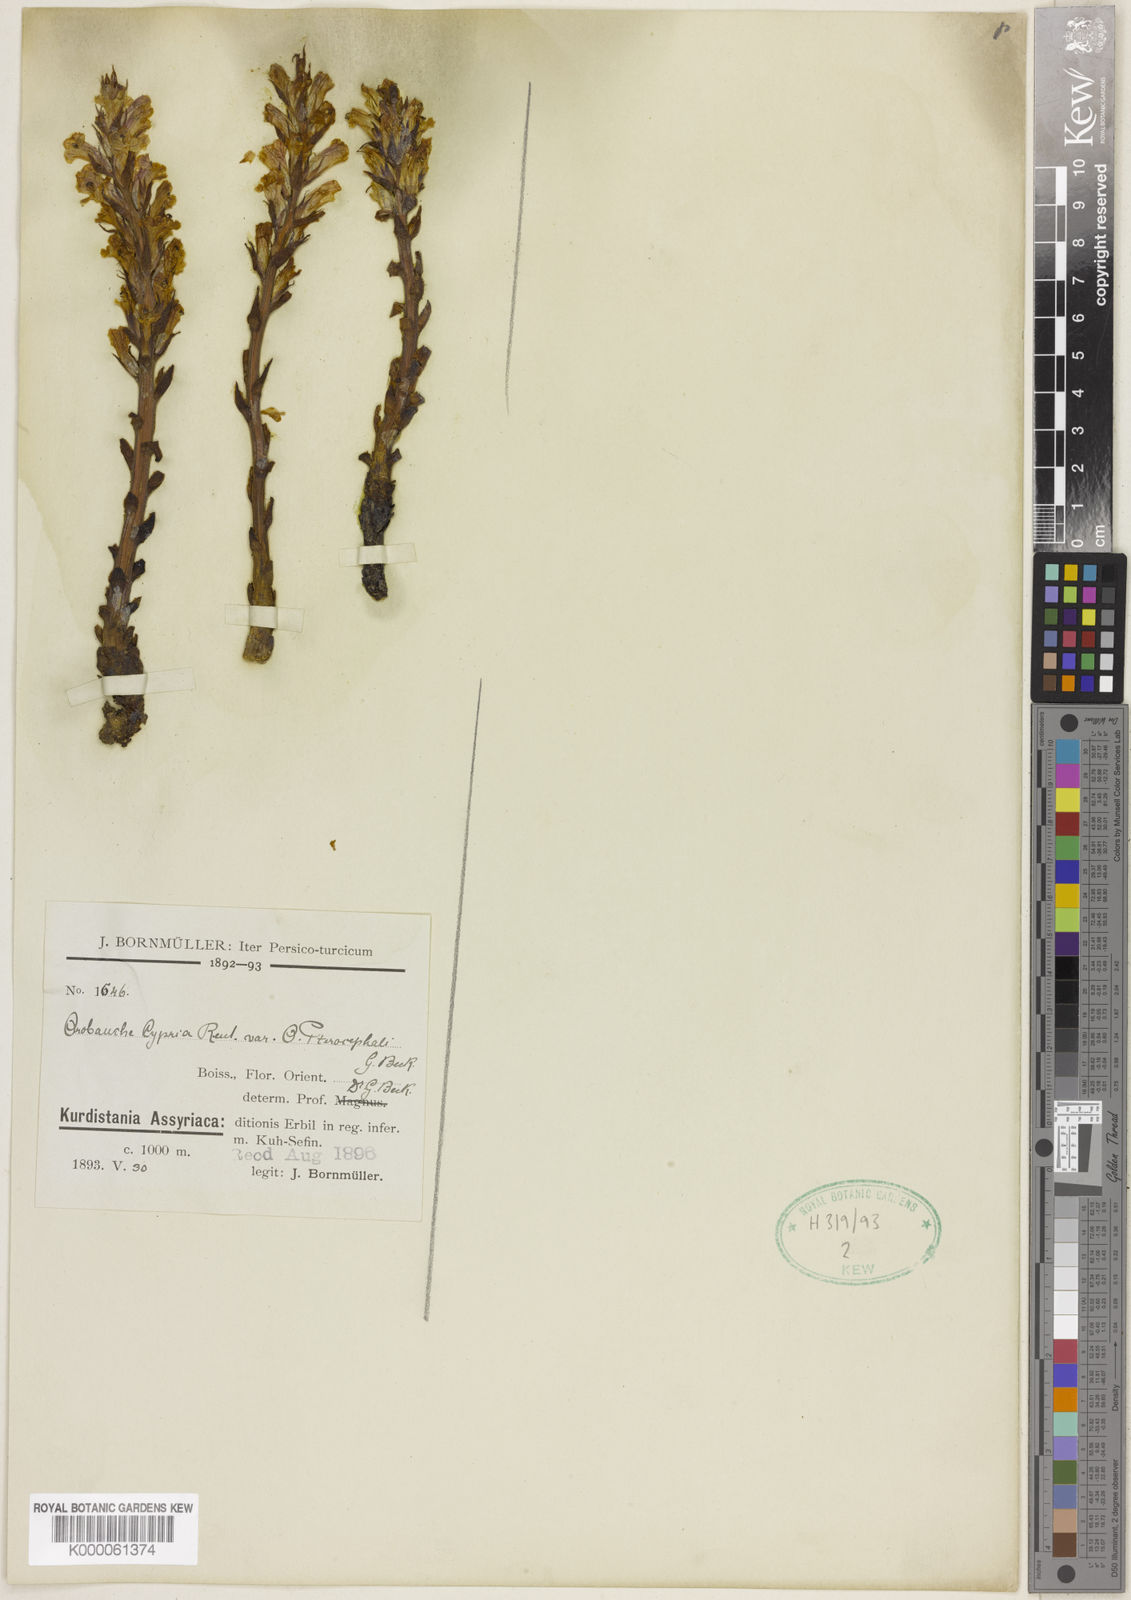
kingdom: Plantae
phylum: Tracheophyta
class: Magnoliopsida
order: Lamiales
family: Orobanchaceae
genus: Orobanche
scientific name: Orobanche
